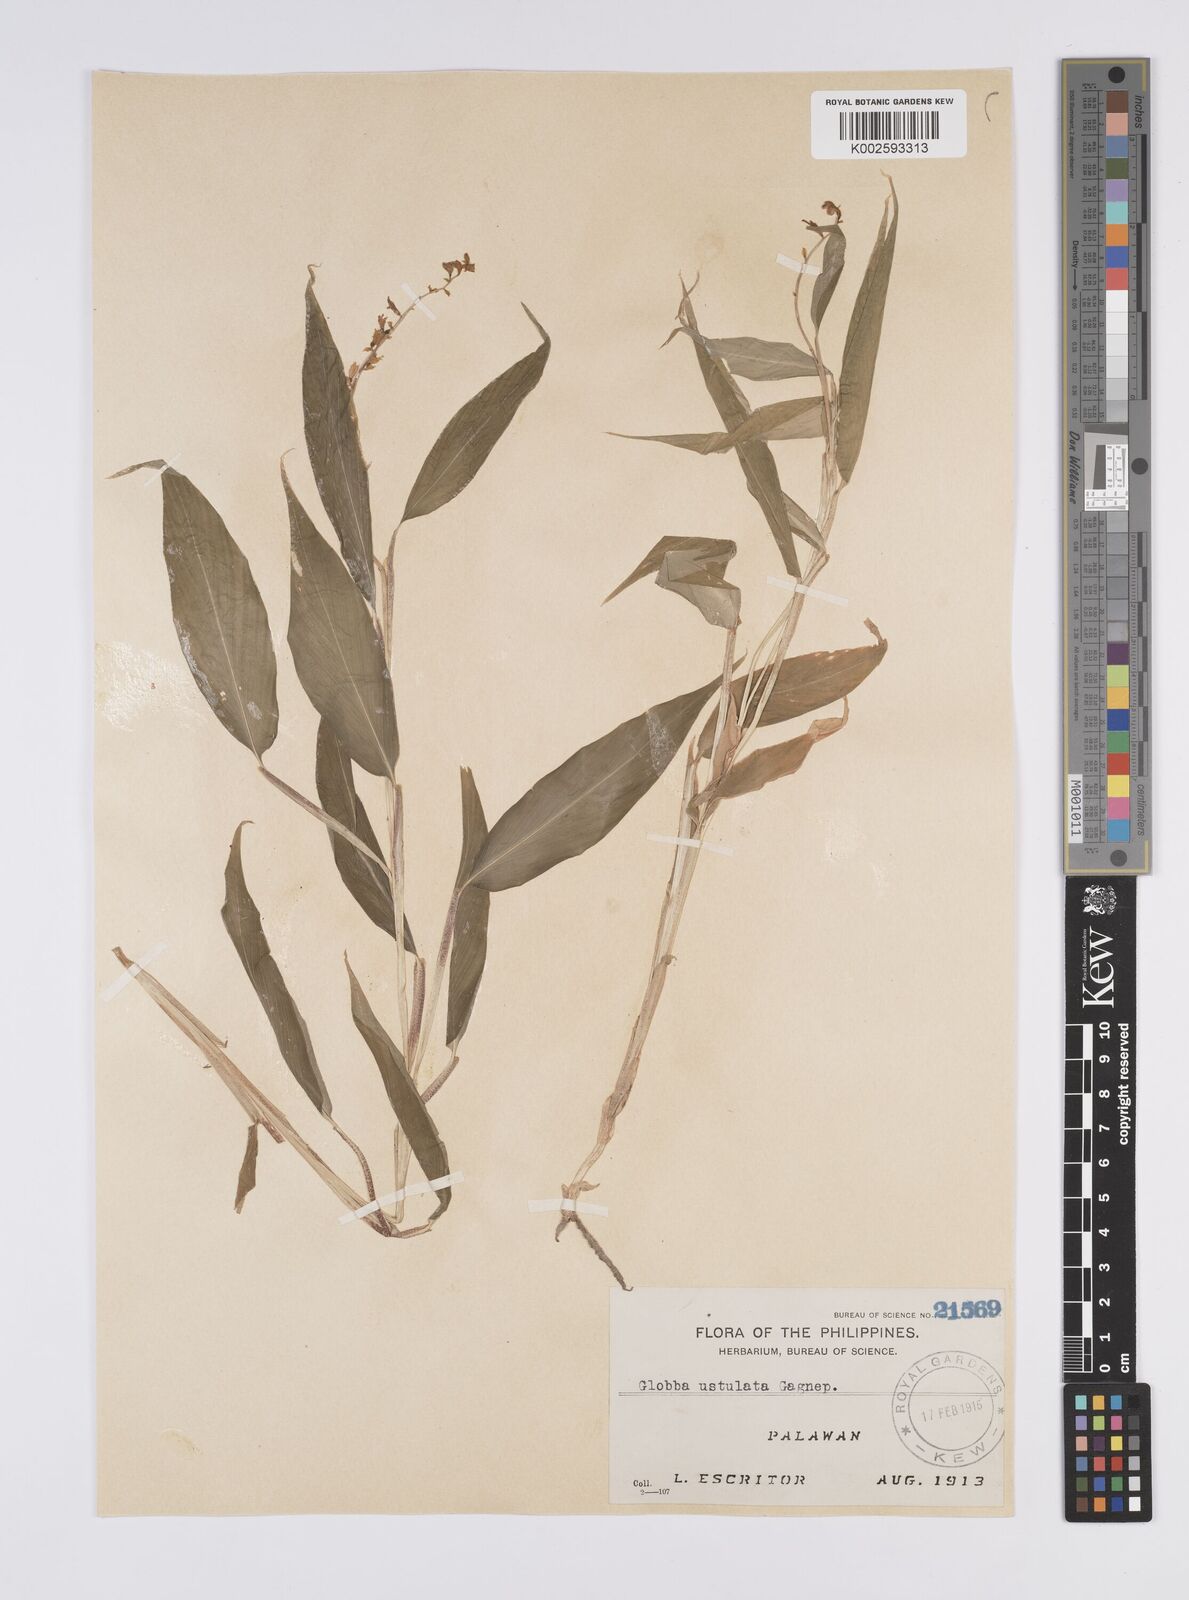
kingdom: Plantae
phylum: Tracheophyta
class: Liliopsida
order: Zingiberales
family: Zingiberaceae
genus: Globba
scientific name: Globba ustulata
